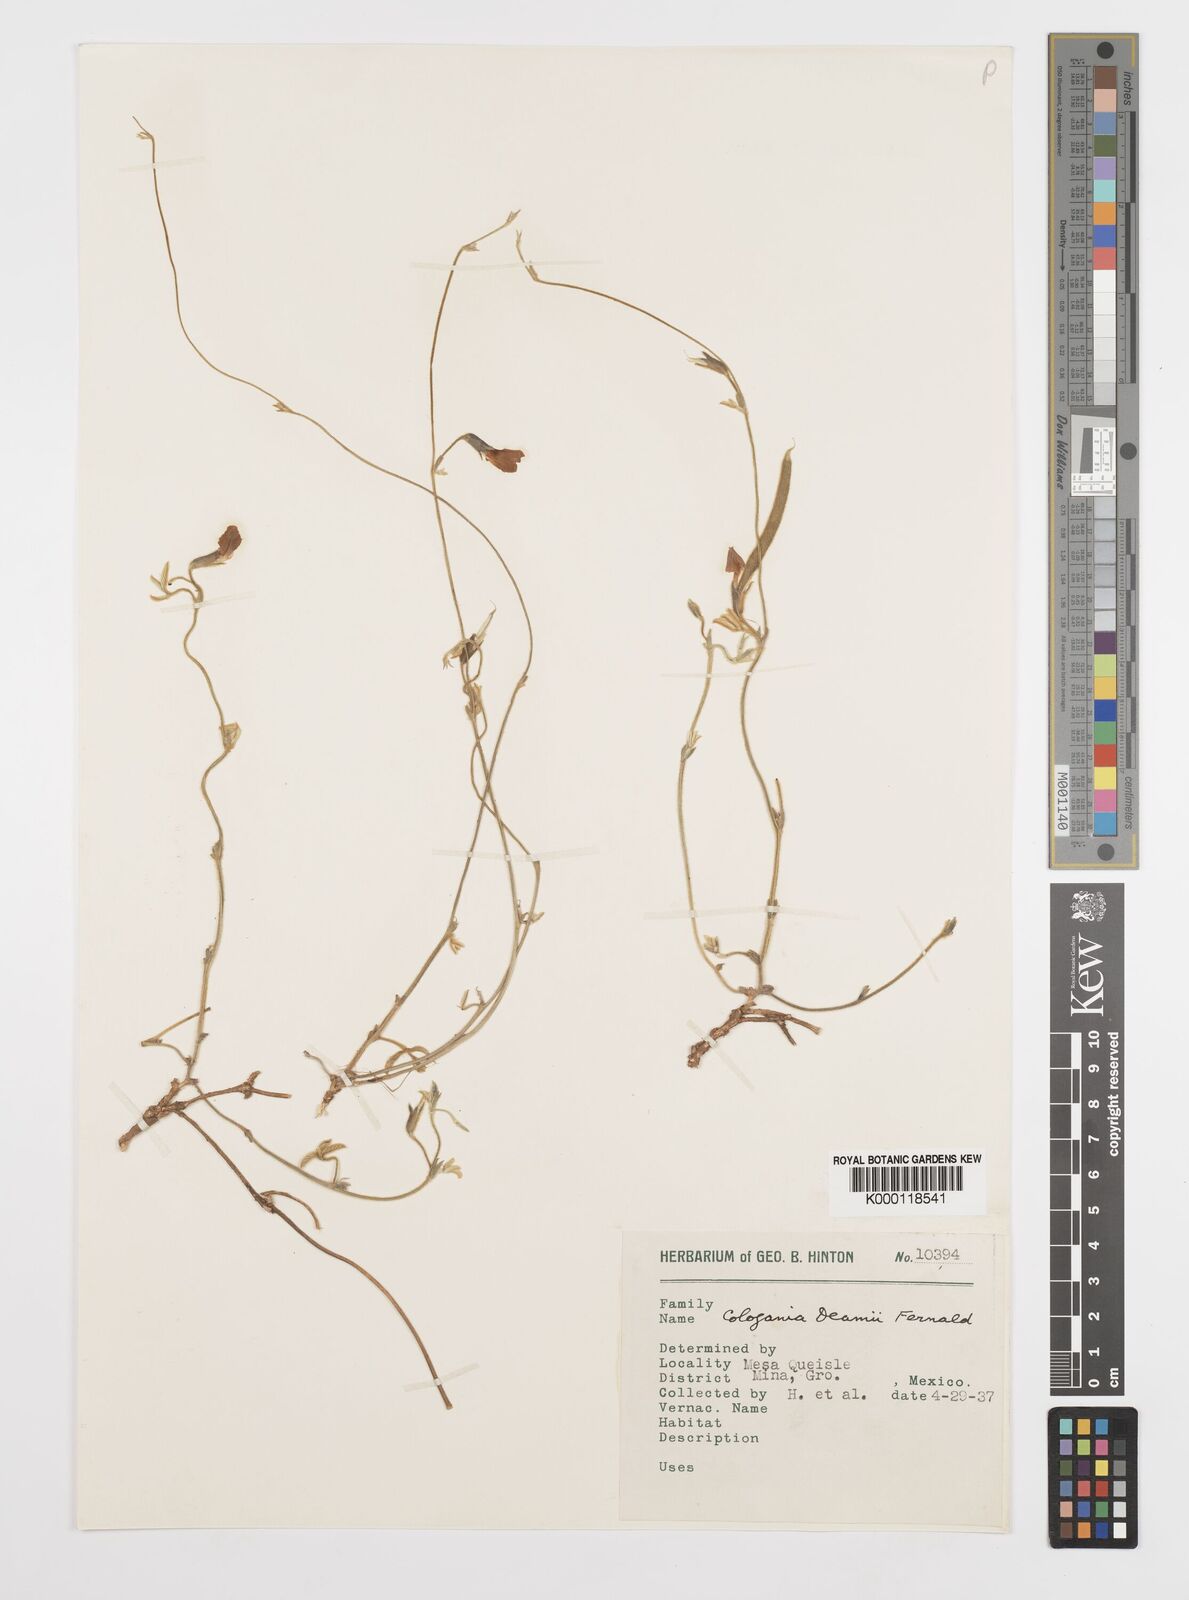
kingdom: Plantae
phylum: Tracheophyta
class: Magnoliopsida
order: Fabales
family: Fabaceae
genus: Cologania
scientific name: Cologania obovata
